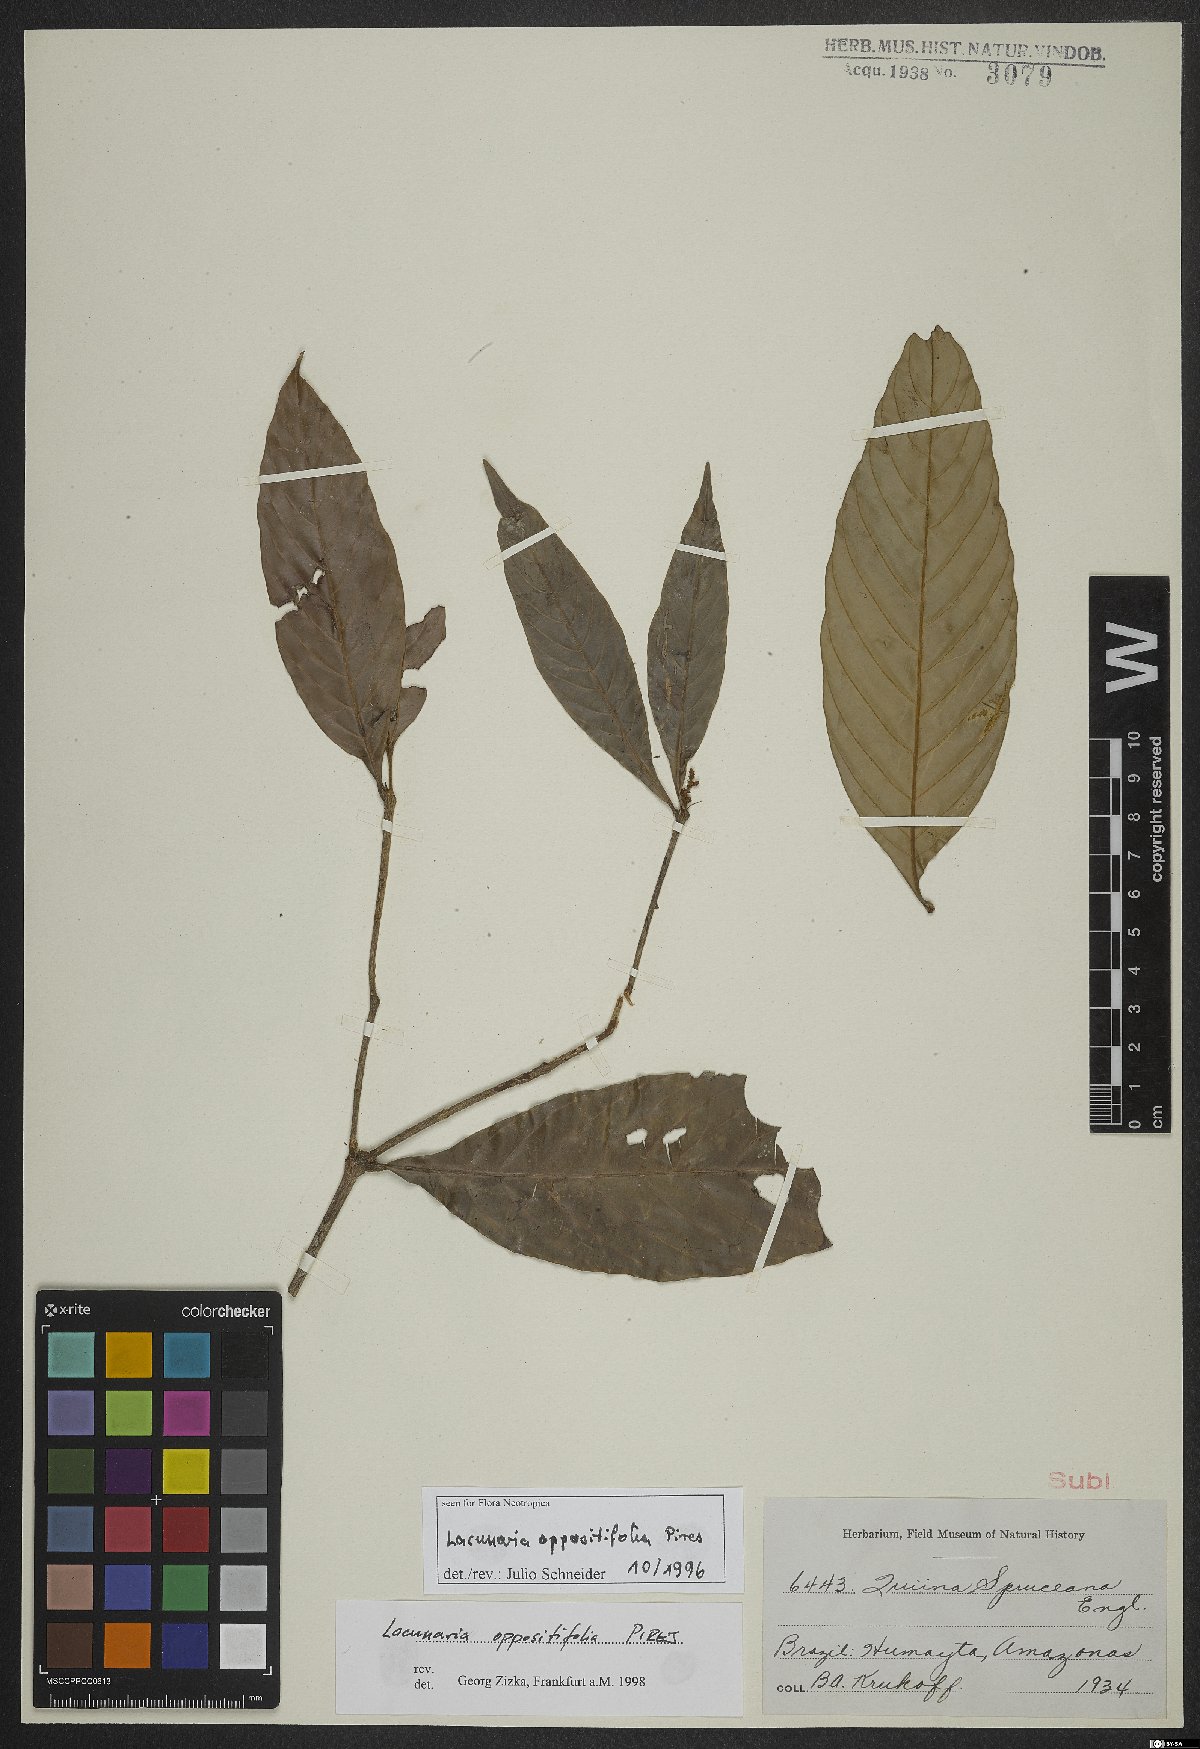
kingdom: Plantae
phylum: Tracheophyta
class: Magnoliopsida
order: Malpighiales
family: Quiinaceae
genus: Lacunaria
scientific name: Lacunaria oppositifolia
